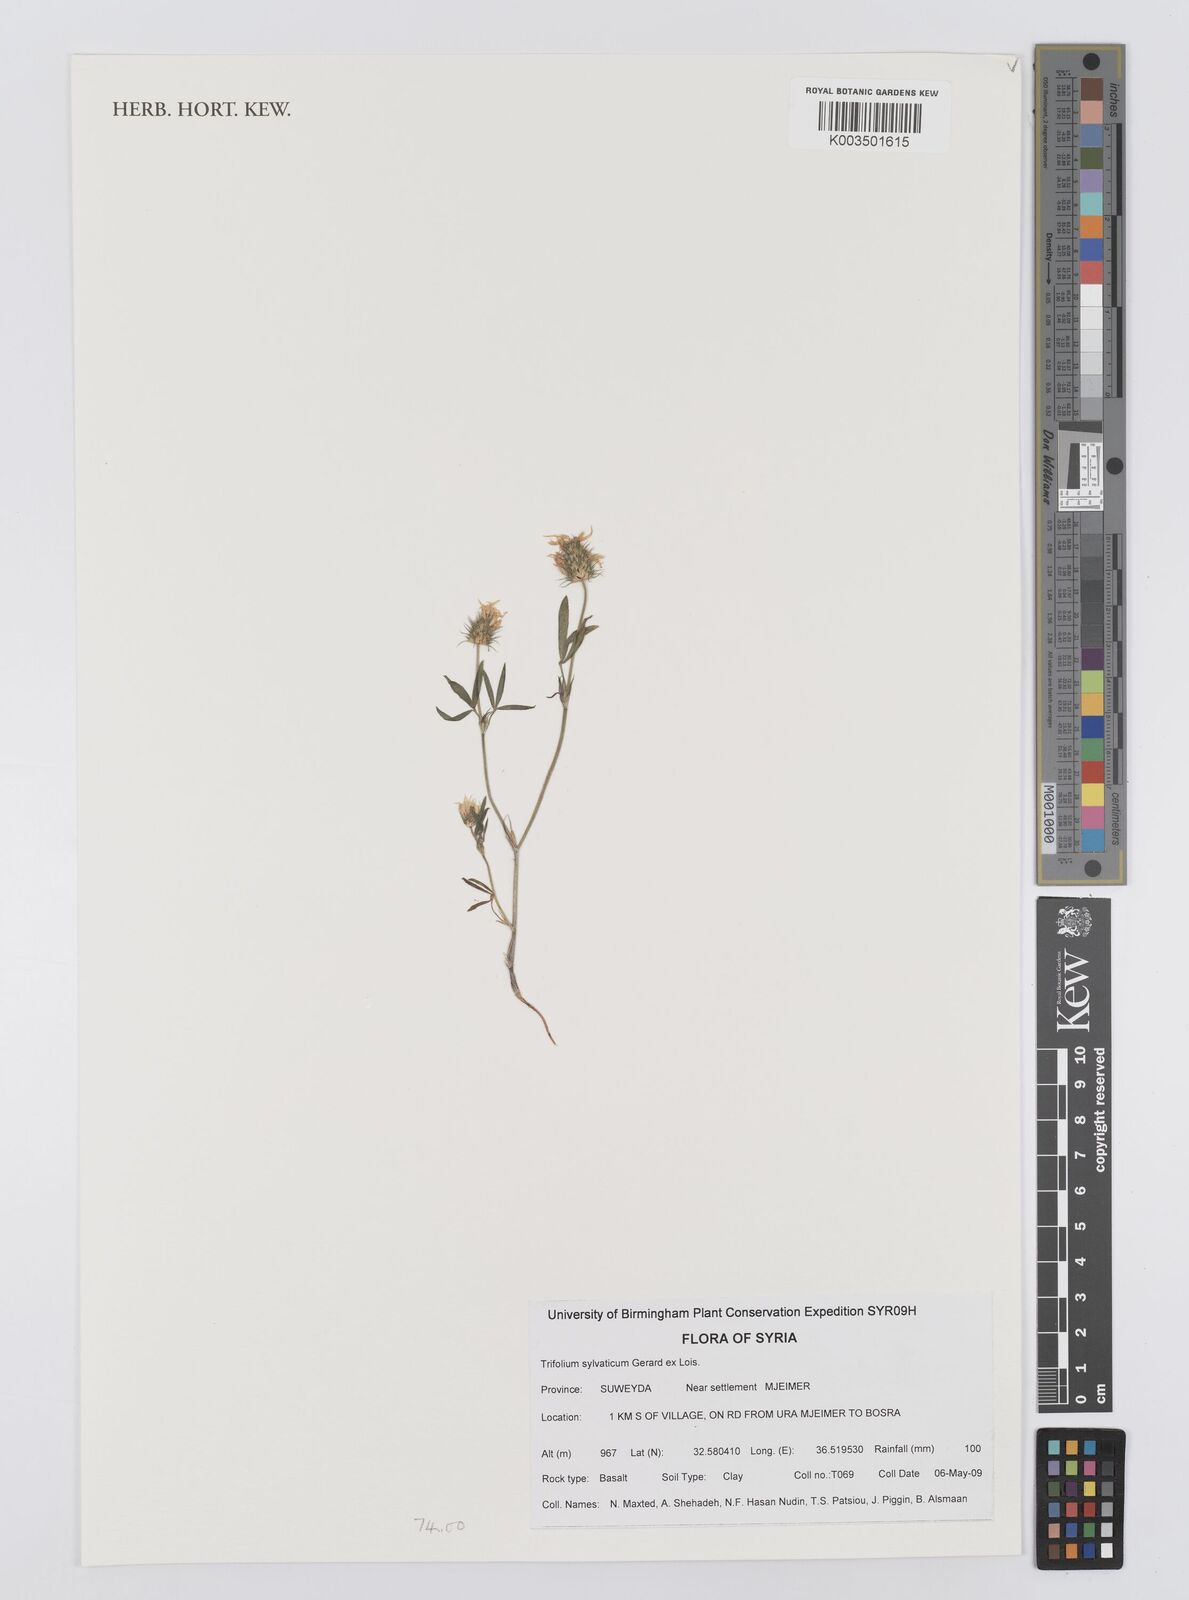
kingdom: Plantae
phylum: Tracheophyta
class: Magnoliopsida
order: Fabales
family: Fabaceae
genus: Trifolium
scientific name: Trifolium sylvaticum
